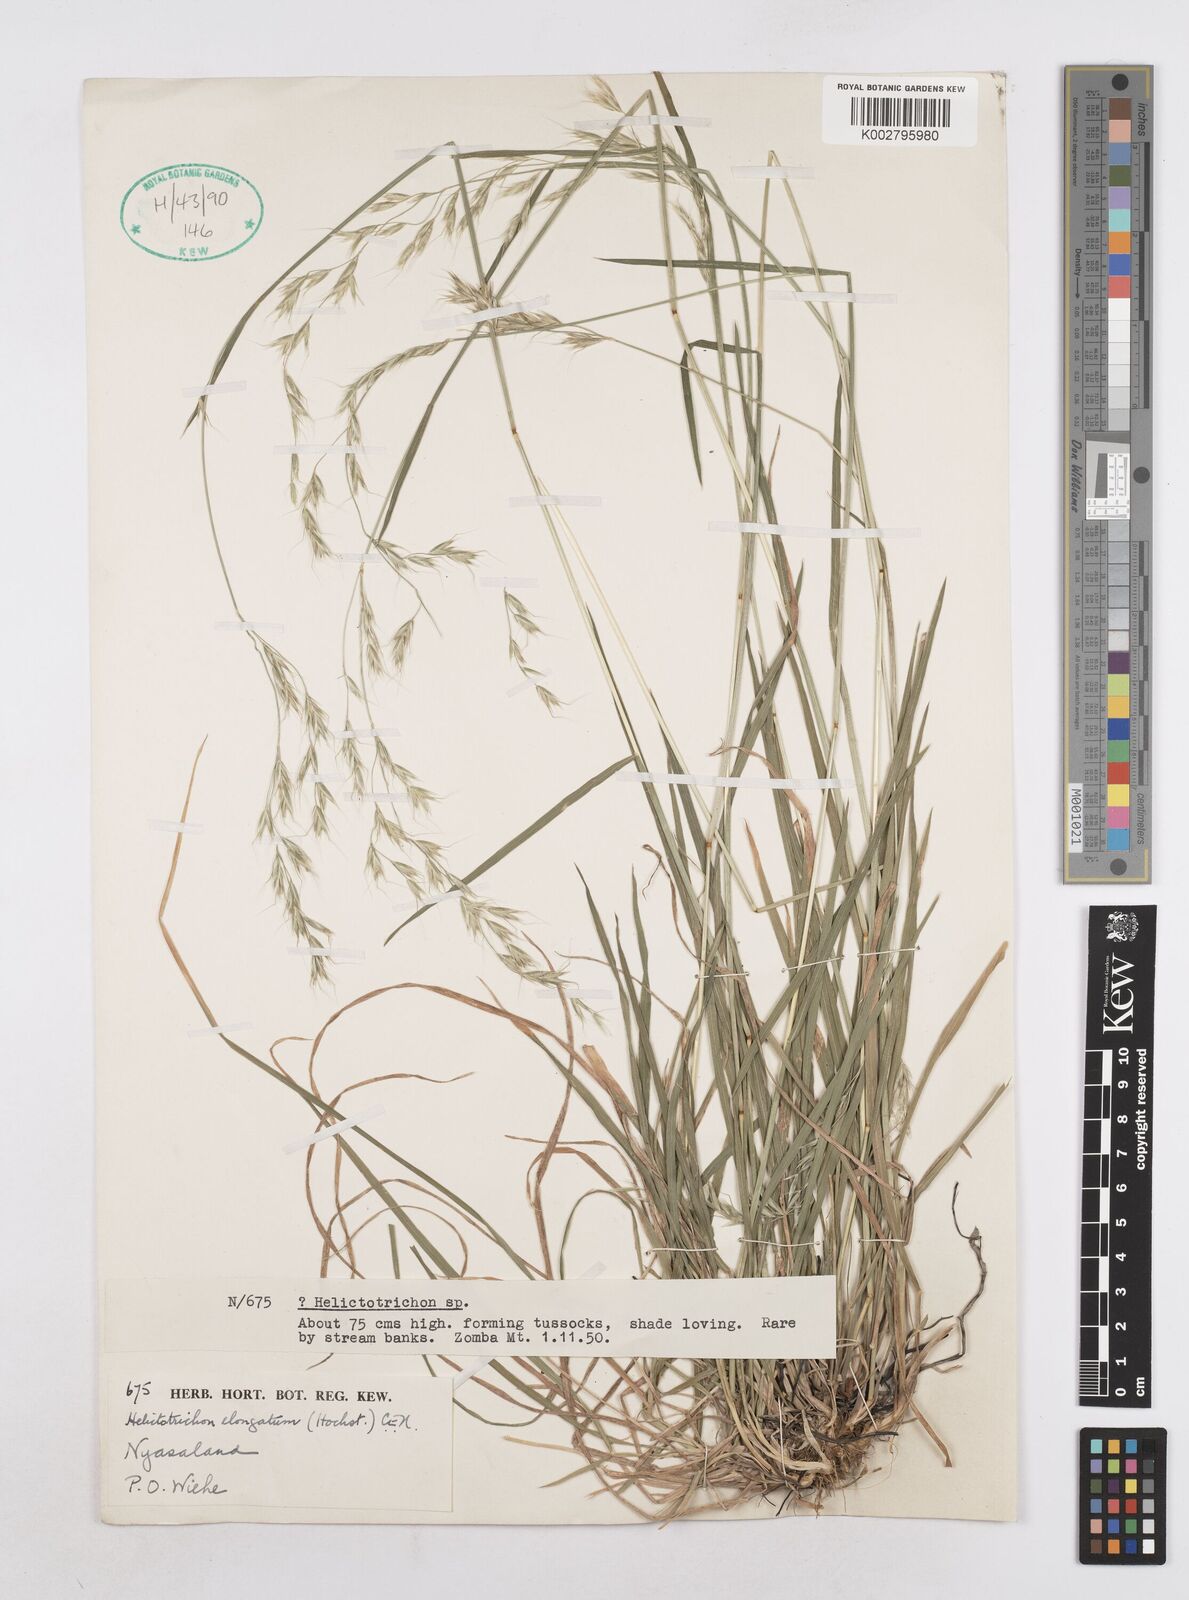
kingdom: Plantae
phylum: Tracheophyta
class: Liliopsida
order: Poales
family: Poaceae
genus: Trisetopsis
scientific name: Trisetopsis elongata
